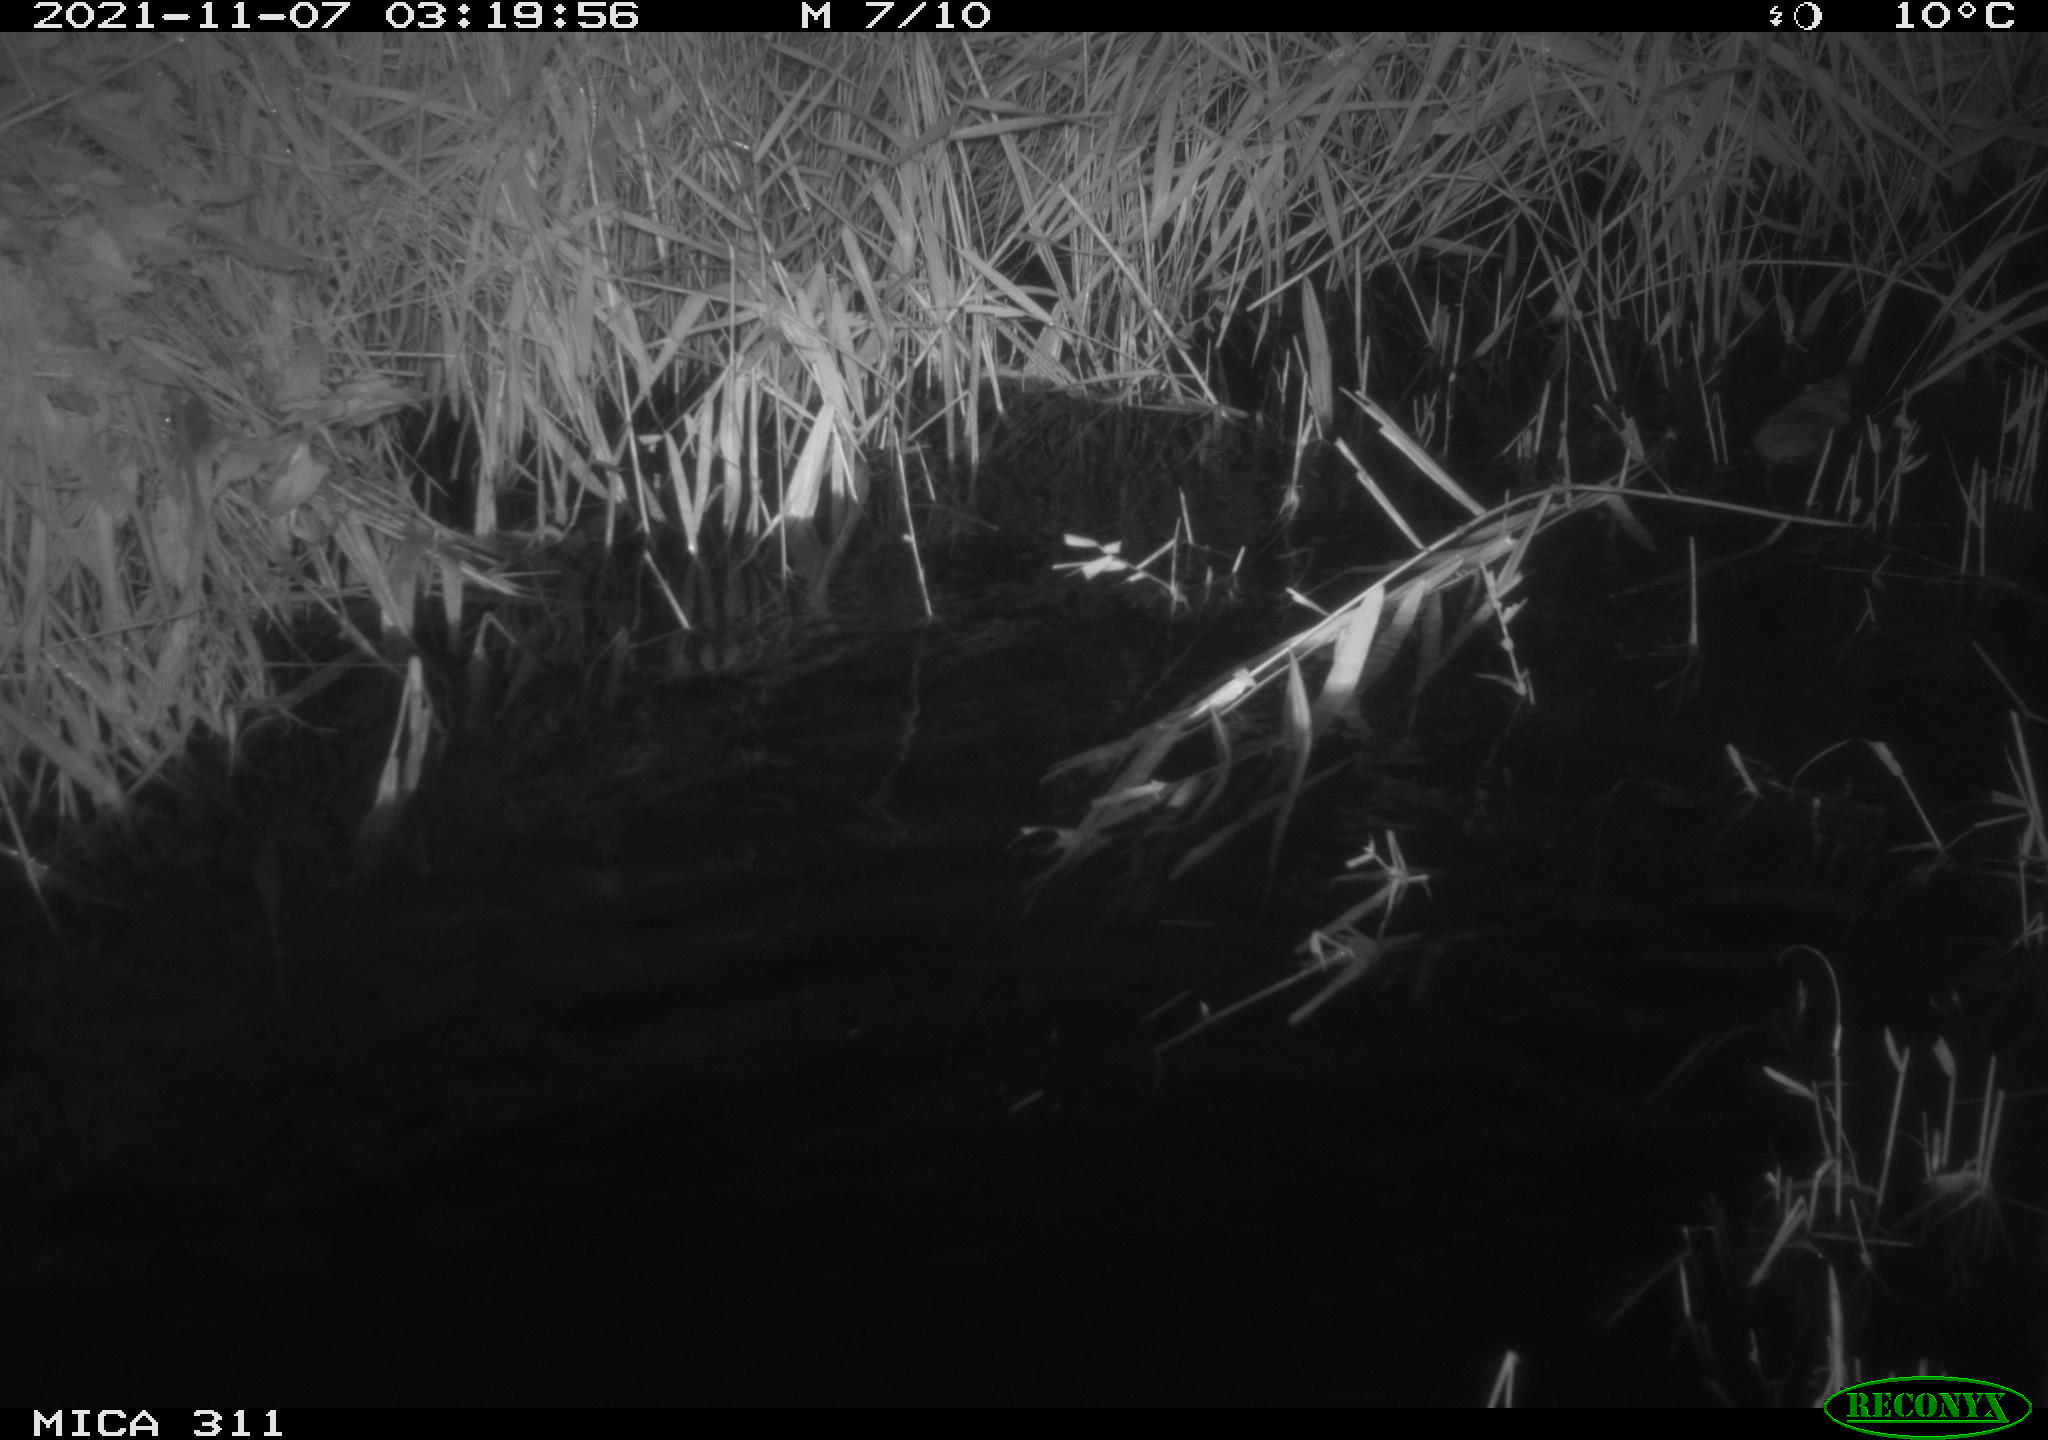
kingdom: Animalia
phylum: Chordata
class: Mammalia
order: Rodentia
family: Muridae
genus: Rattus
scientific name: Rattus norvegicus
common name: Brown rat
